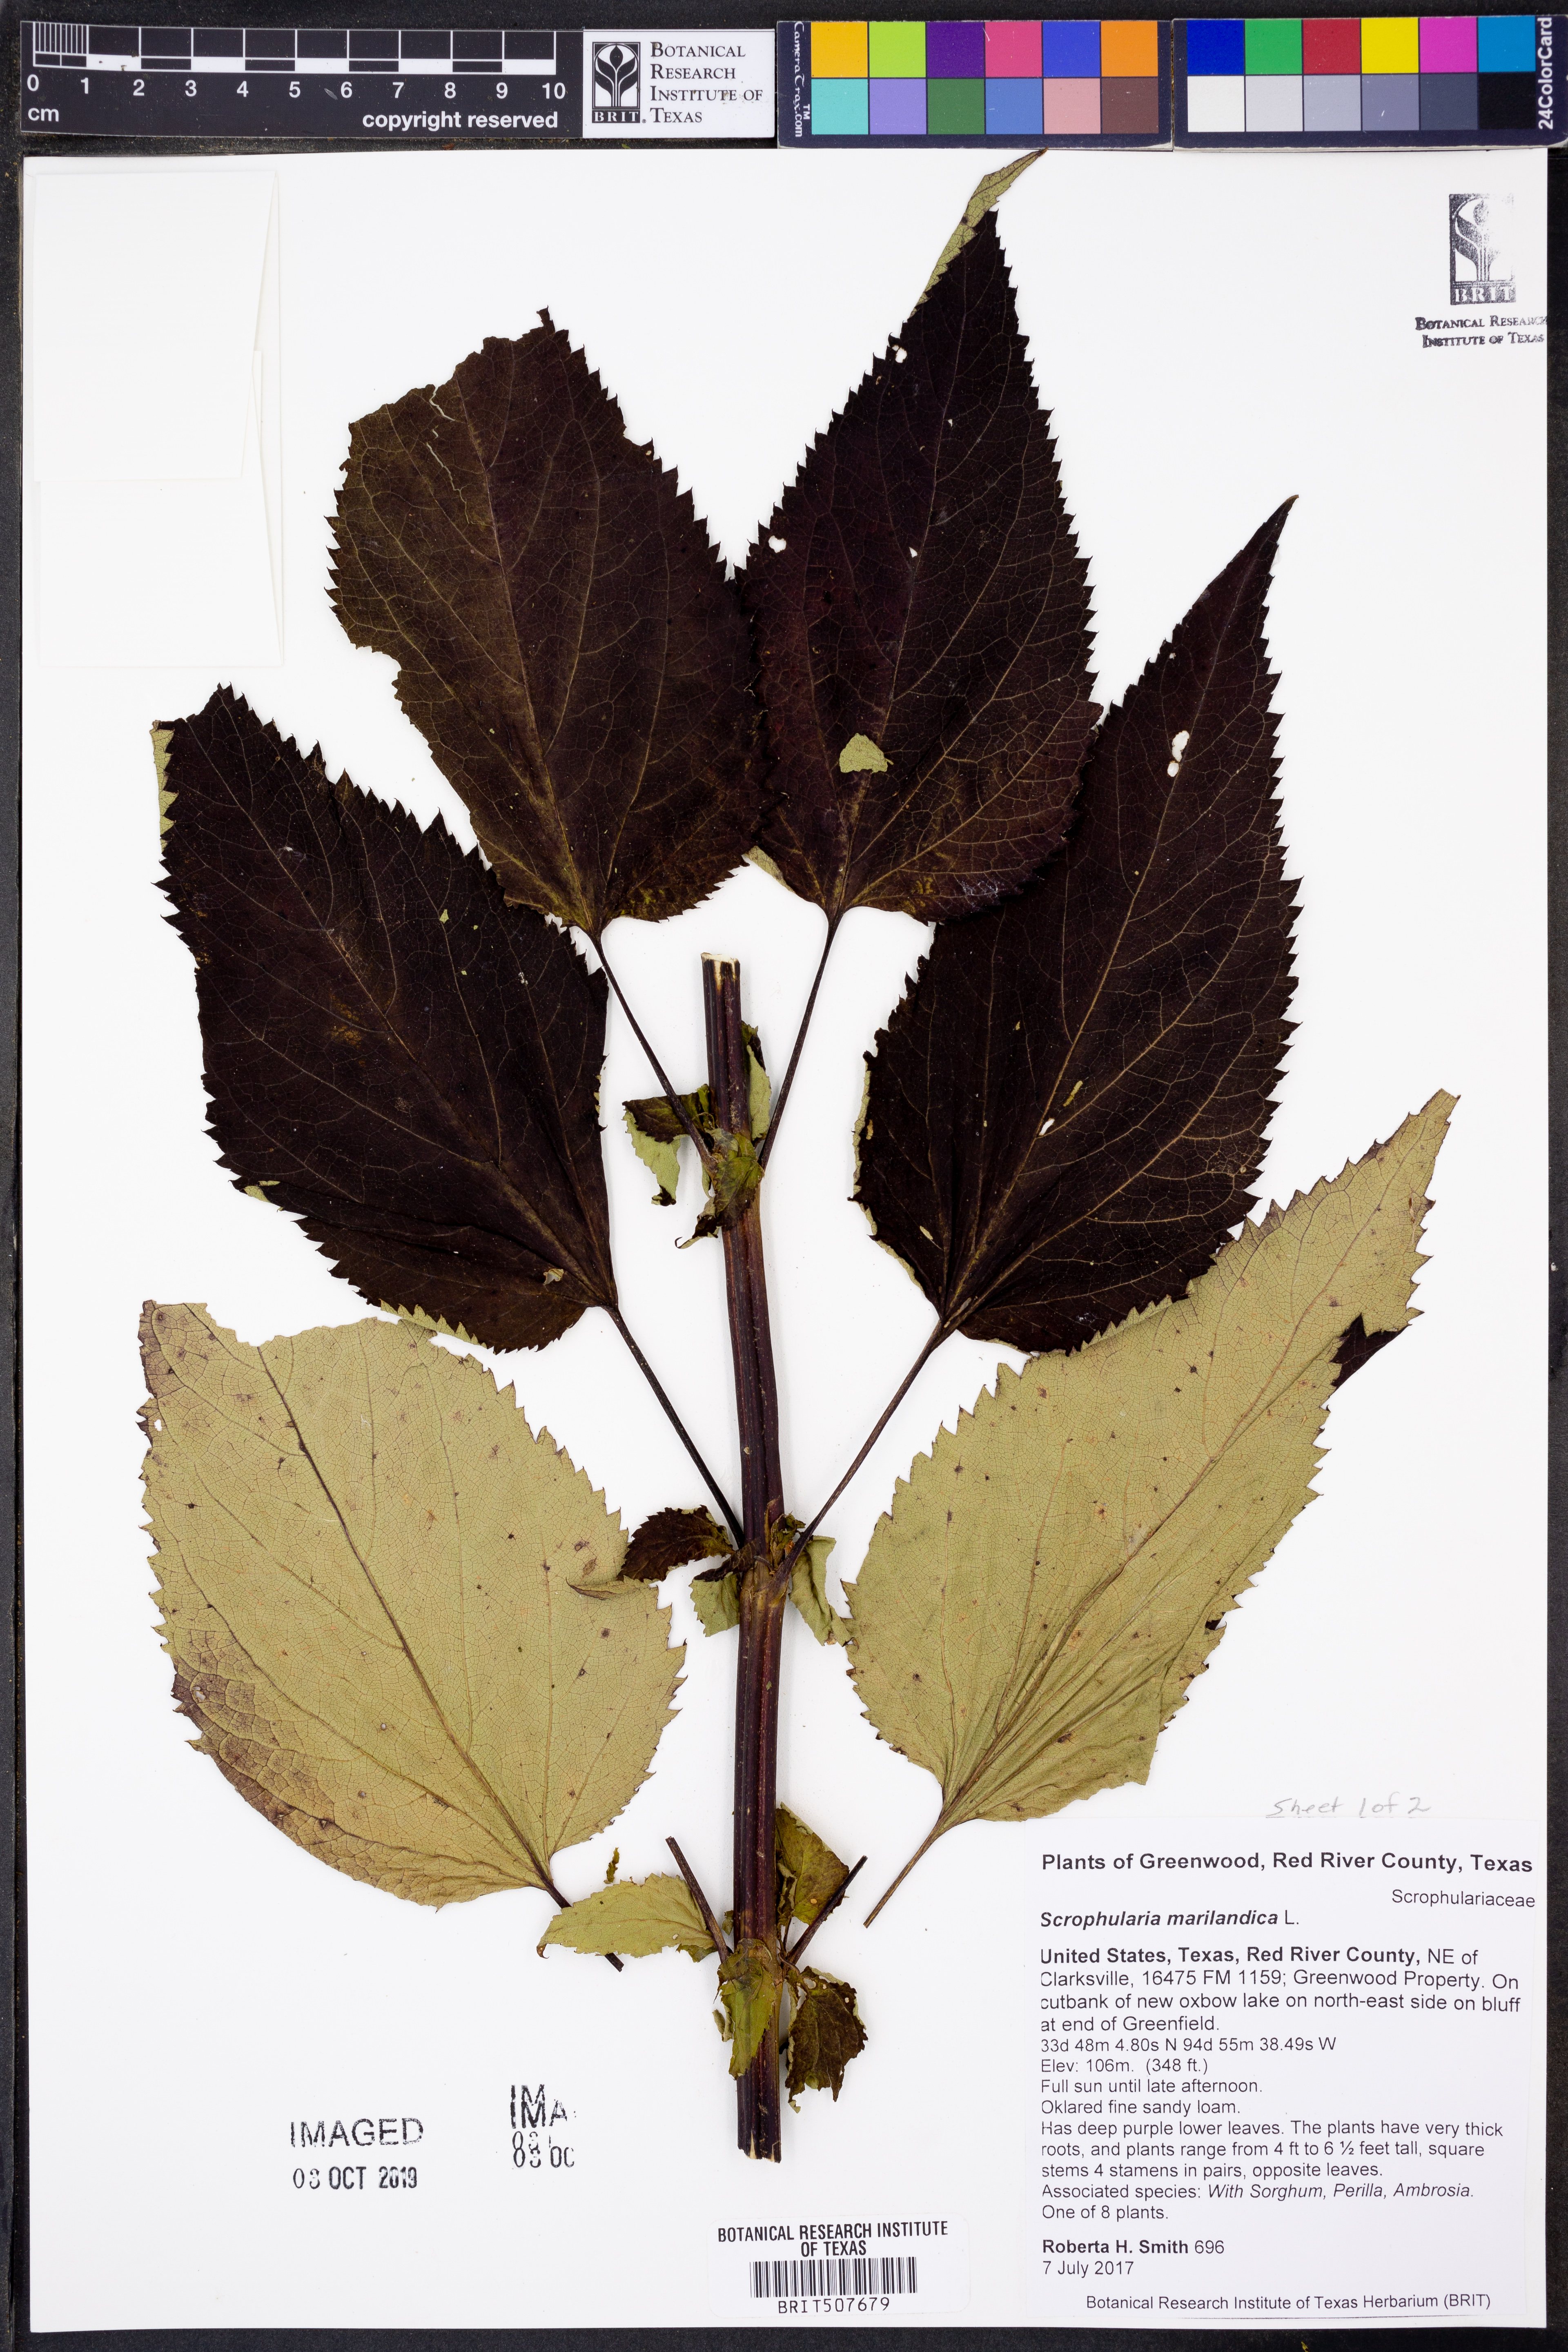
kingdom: Plantae
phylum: Tracheophyta
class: Magnoliopsida
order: Lamiales
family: Scrophulariaceae
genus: Scrophularia
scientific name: Scrophularia marilandica
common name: Eastern figwort
